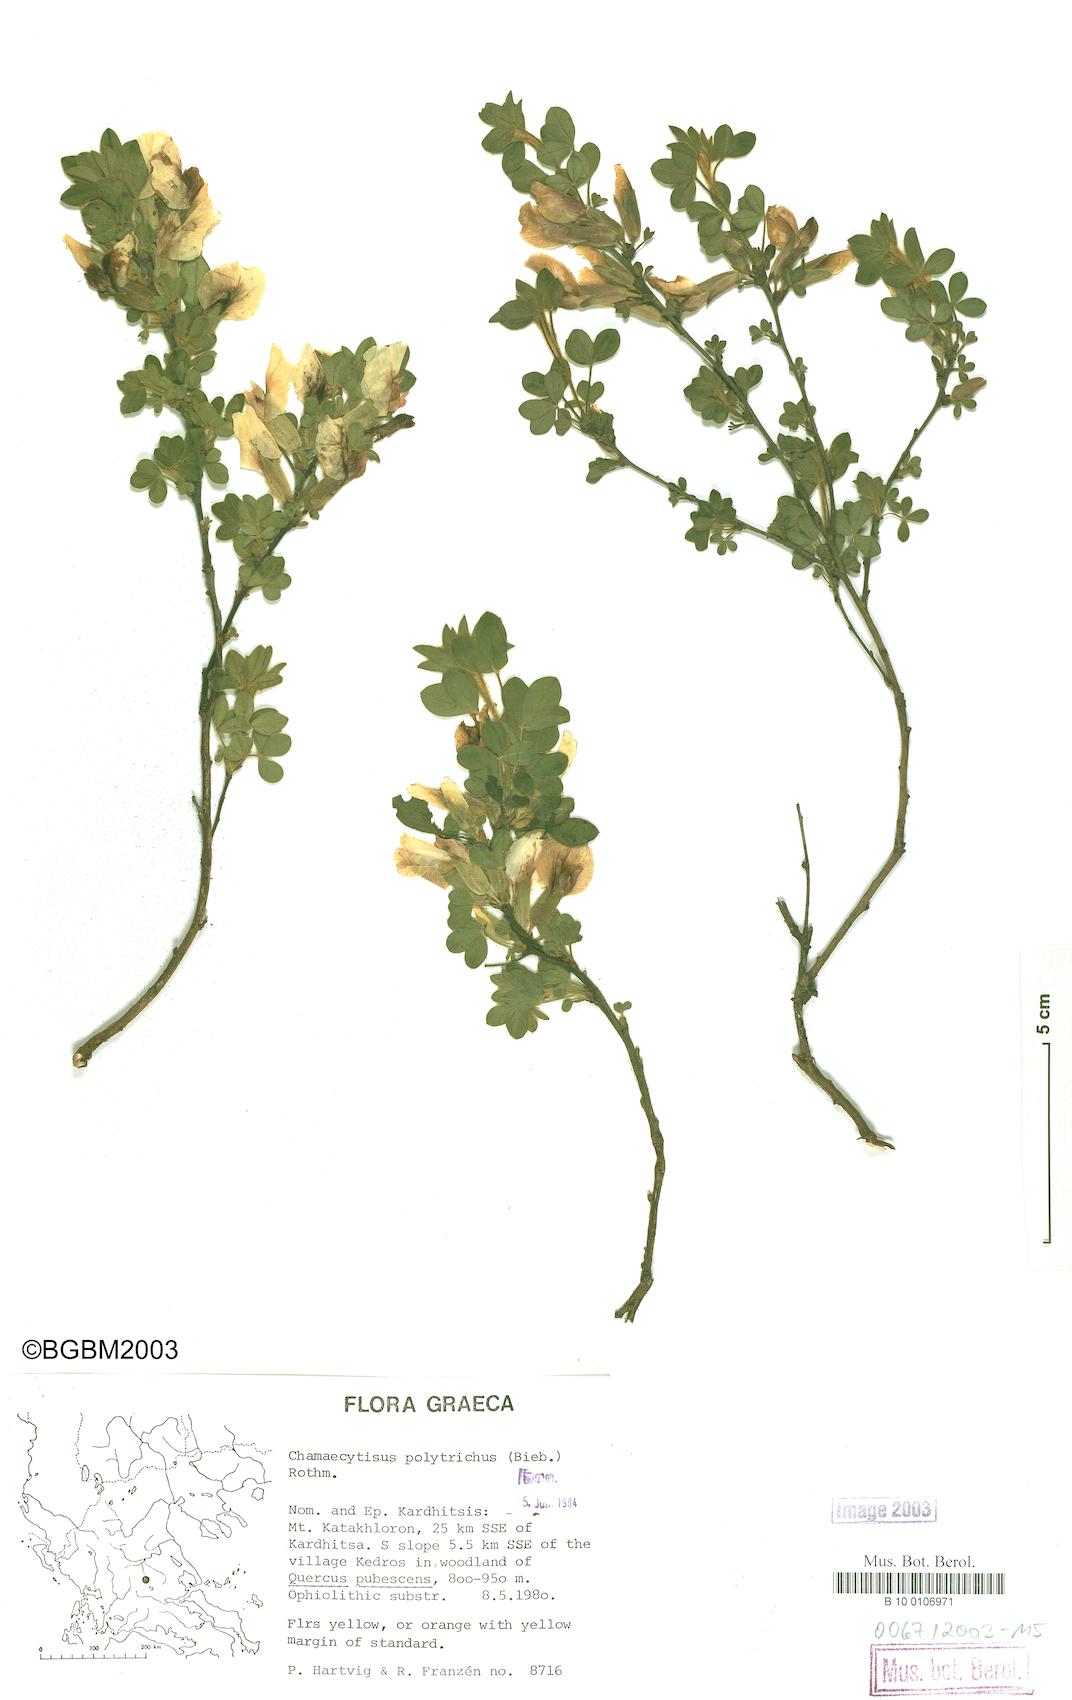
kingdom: Plantae
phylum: Tracheophyta
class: Magnoliopsida
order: Fabales
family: Fabaceae
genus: Chamaecytisus
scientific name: Chamaecytisus hirsutus
